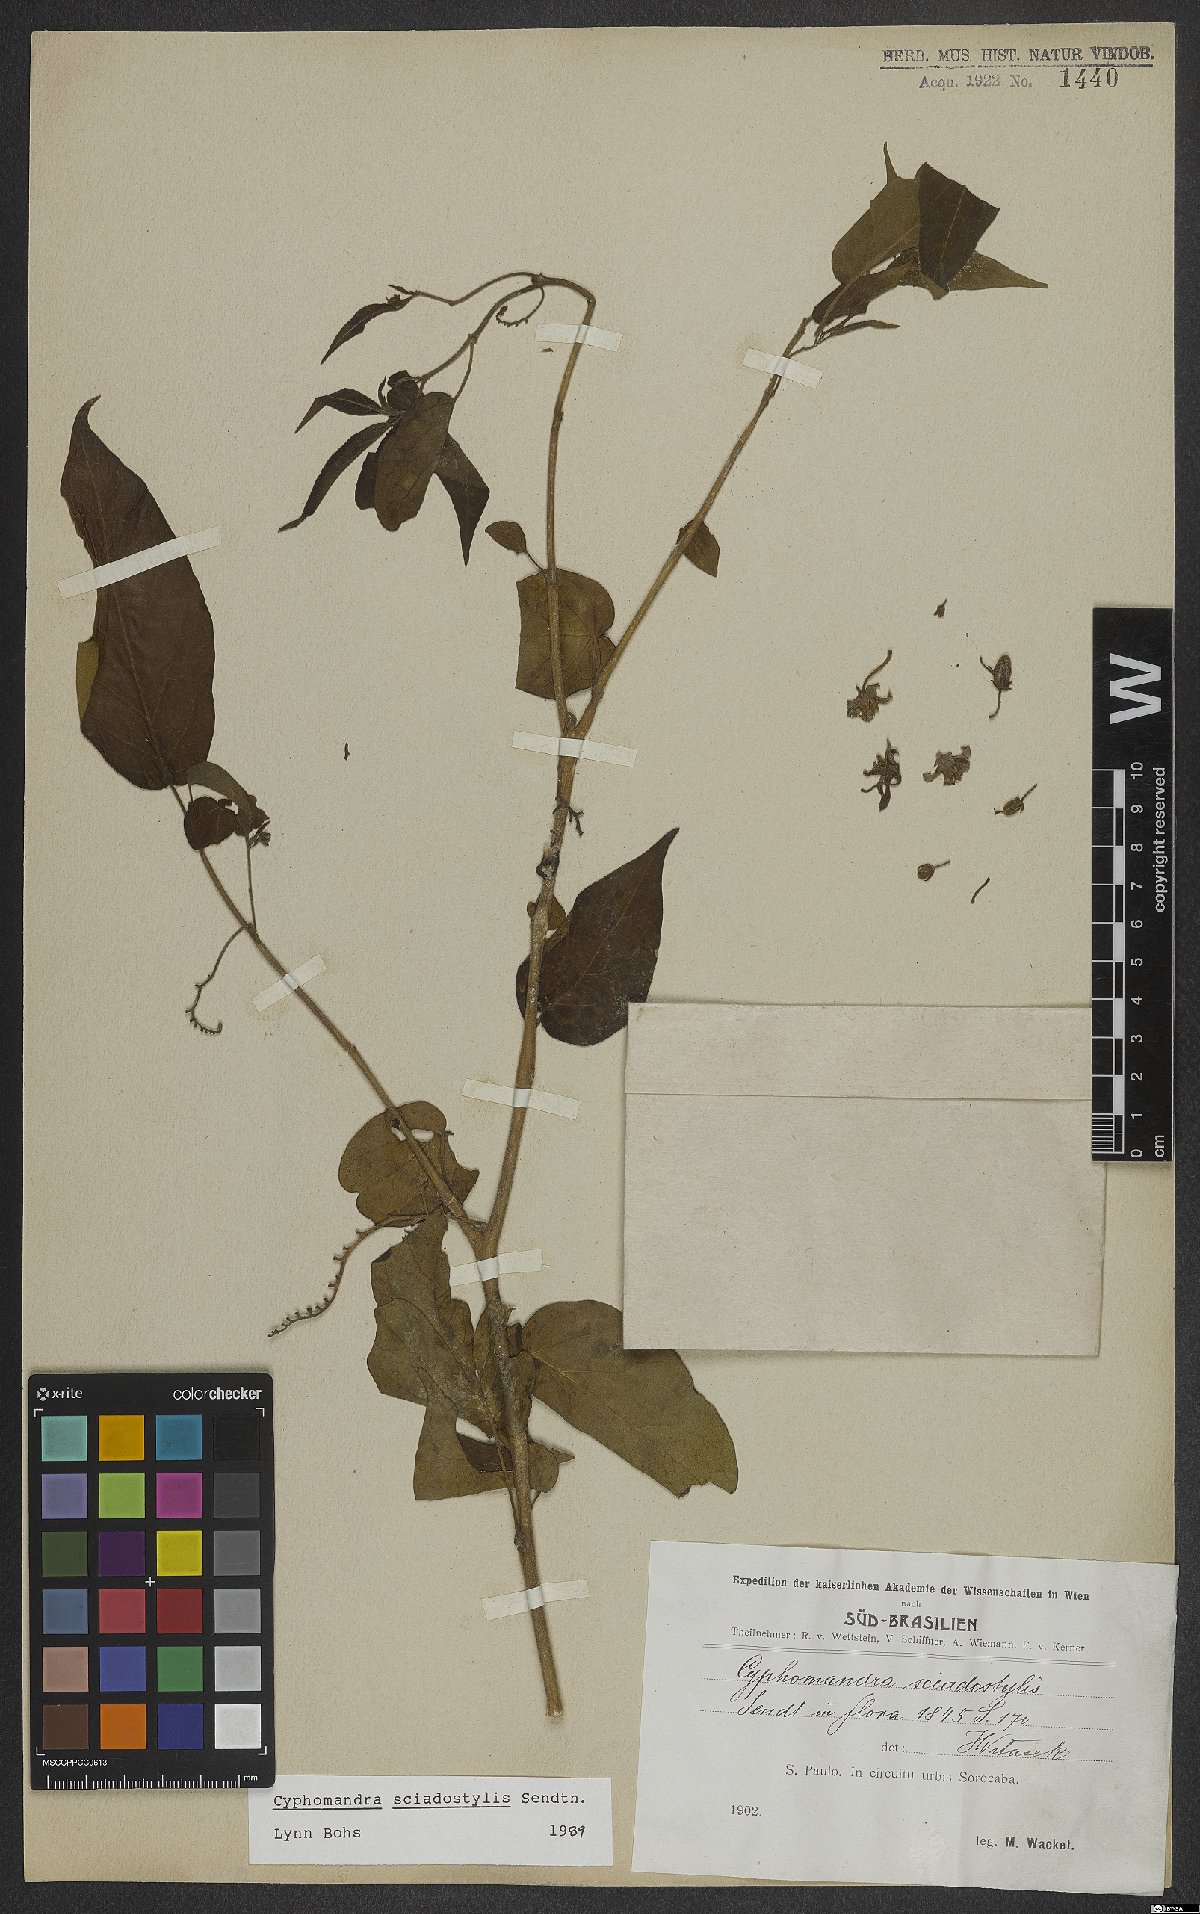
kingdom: Plantae
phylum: Tracheophyta
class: Magnoliopsida
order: Solanales
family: Solanaceae
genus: Solanum
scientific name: Solanum sciadostylis
